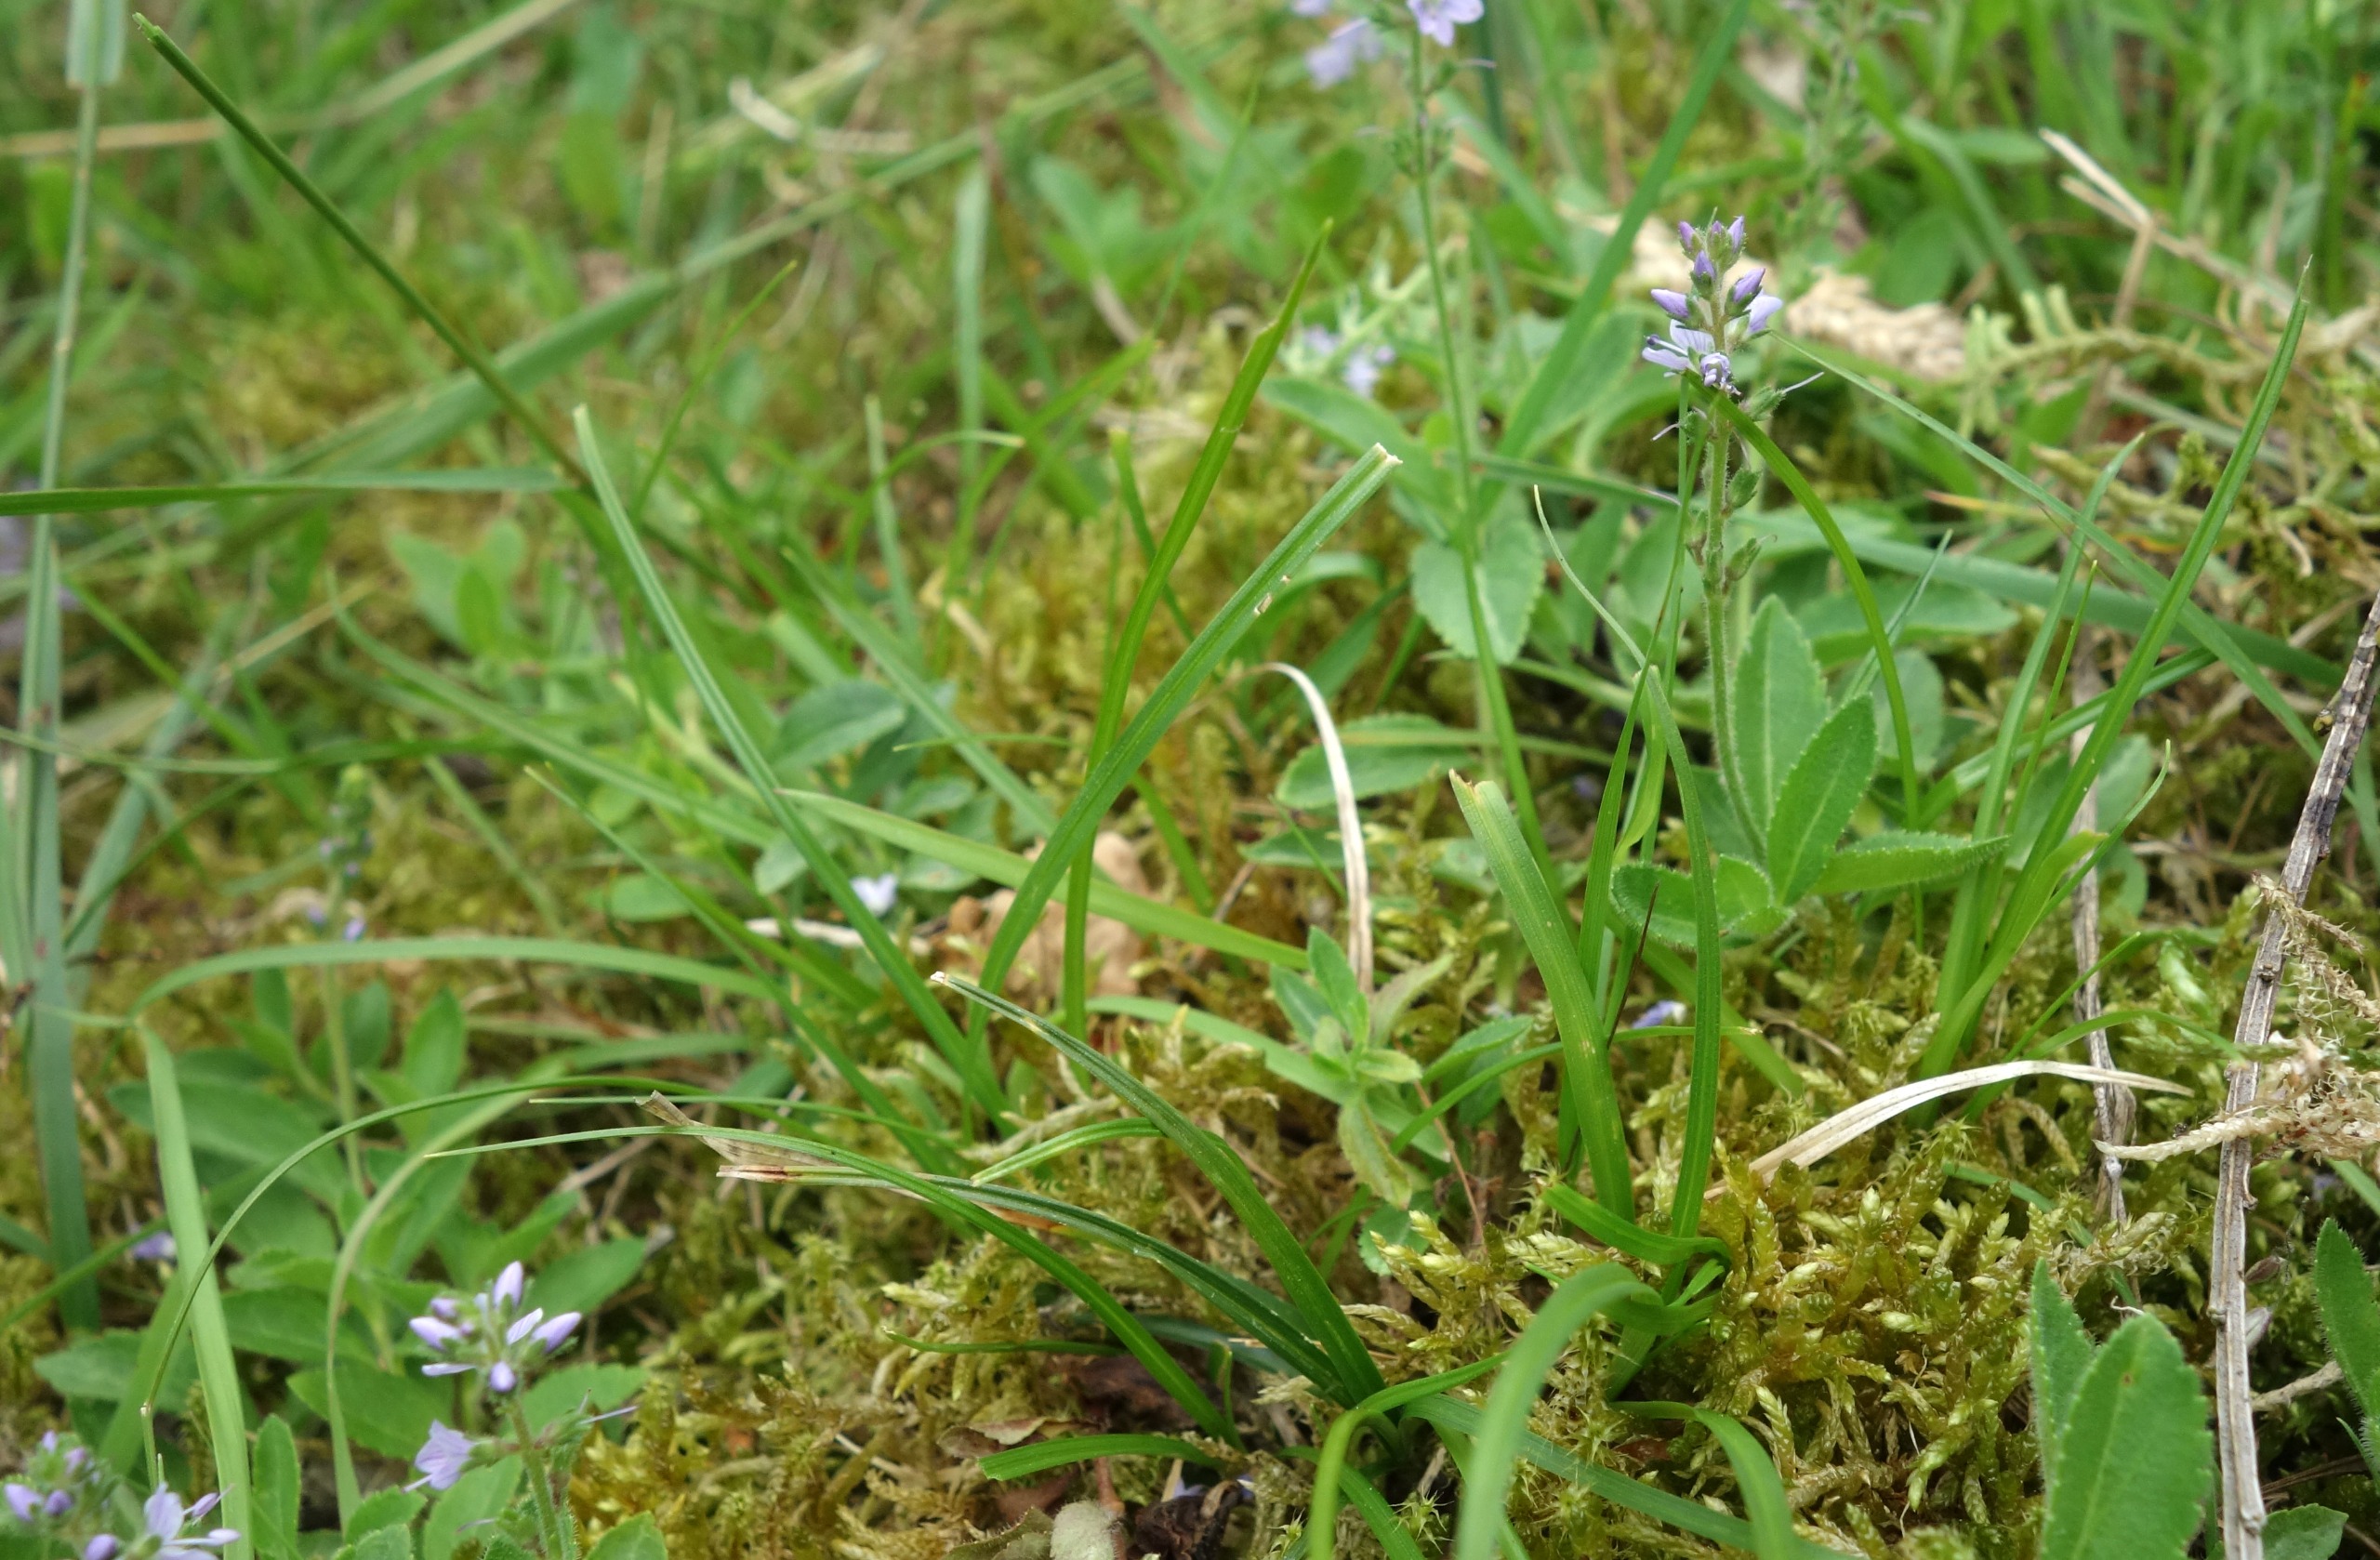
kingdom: Plantae
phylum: Tracheophyta
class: Liliopsida
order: Poales
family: Cyperaceae
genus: Carex
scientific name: Carex pilulifera
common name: Pille-star
